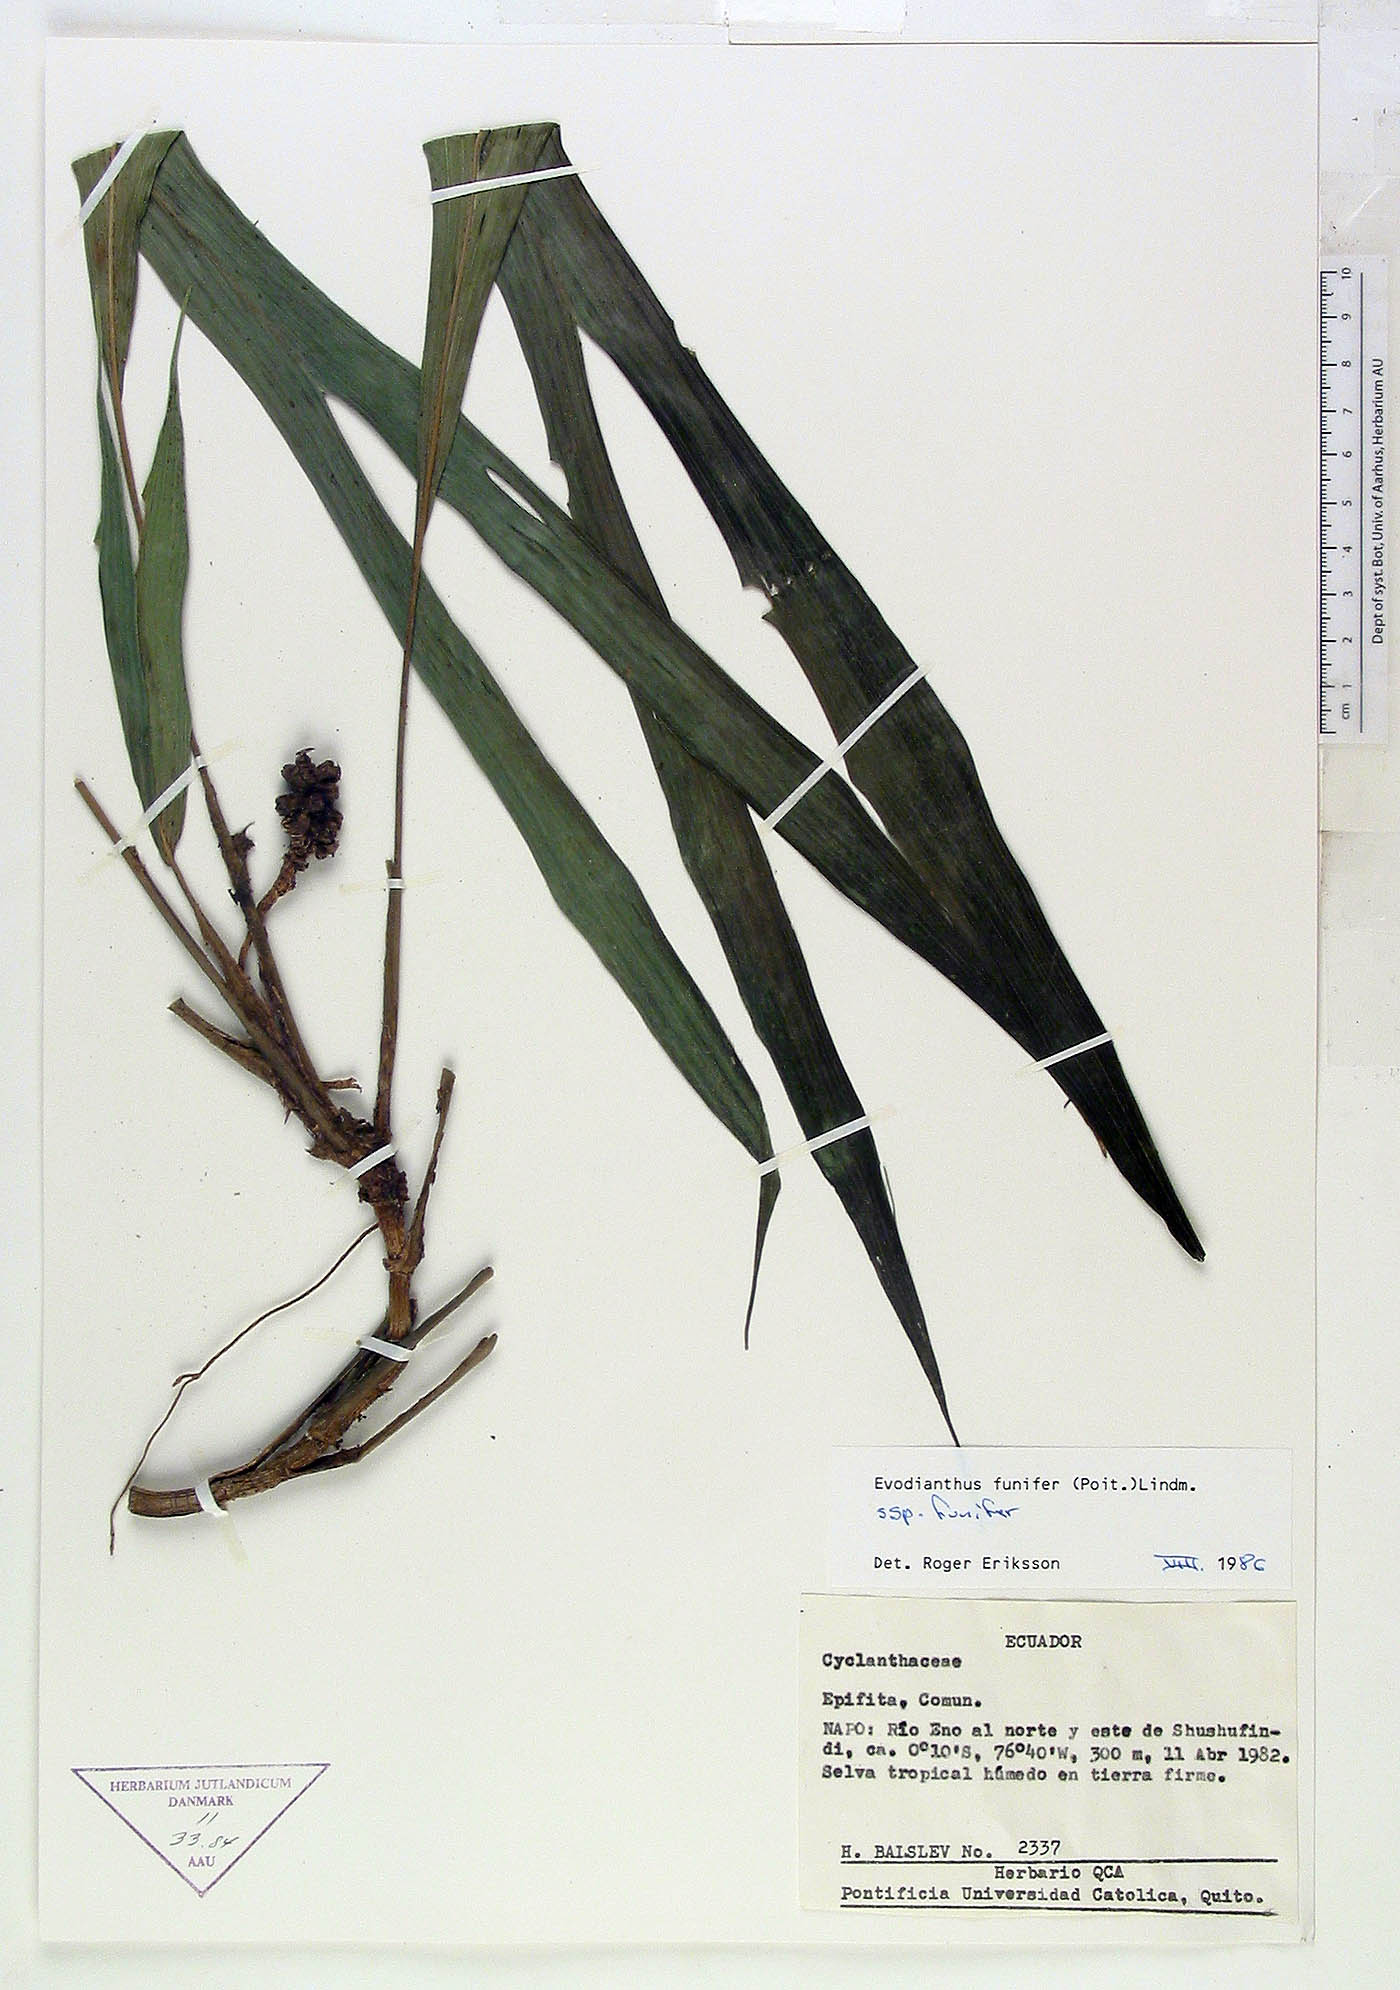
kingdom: Plantae
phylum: Tracheophyta
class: Liliopsida
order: Pandanales
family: Cyclanthaceae
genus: Evodianthus
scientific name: Evodianthus funifer
